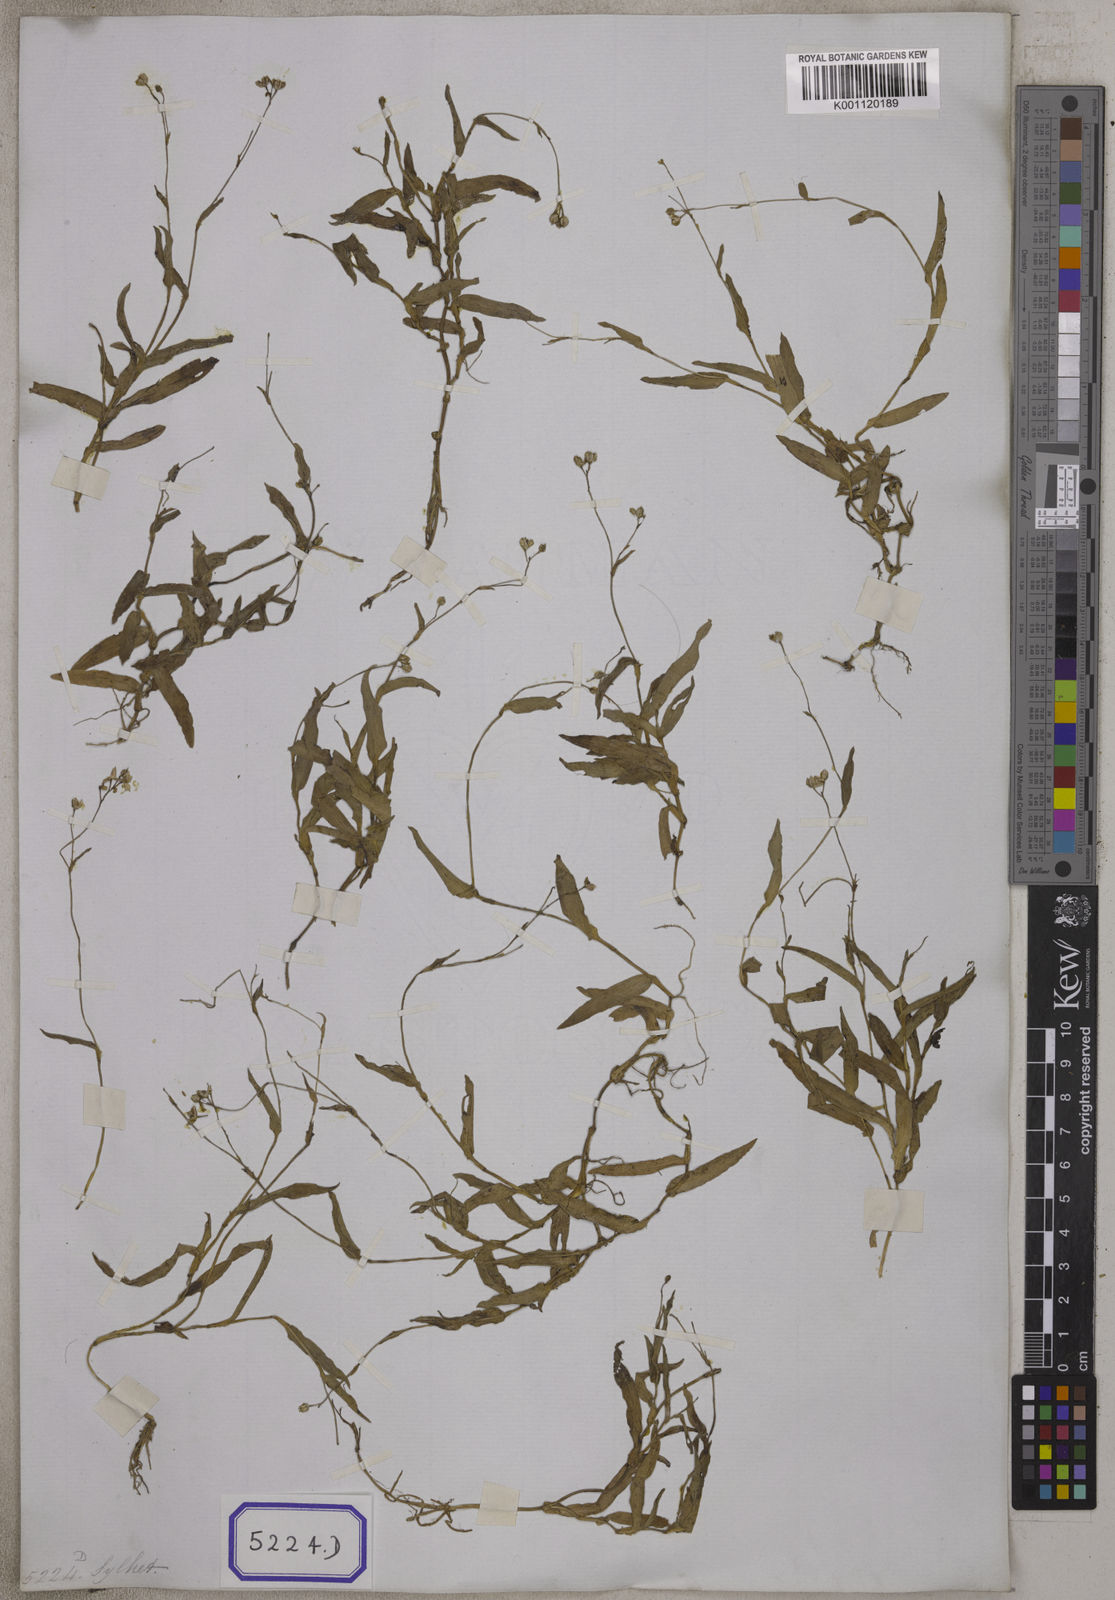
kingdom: Plantae
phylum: Tracheophyta
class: Liliopsida
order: Commelinales
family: Commelinaceae
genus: Aneilema
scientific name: Aneilema
